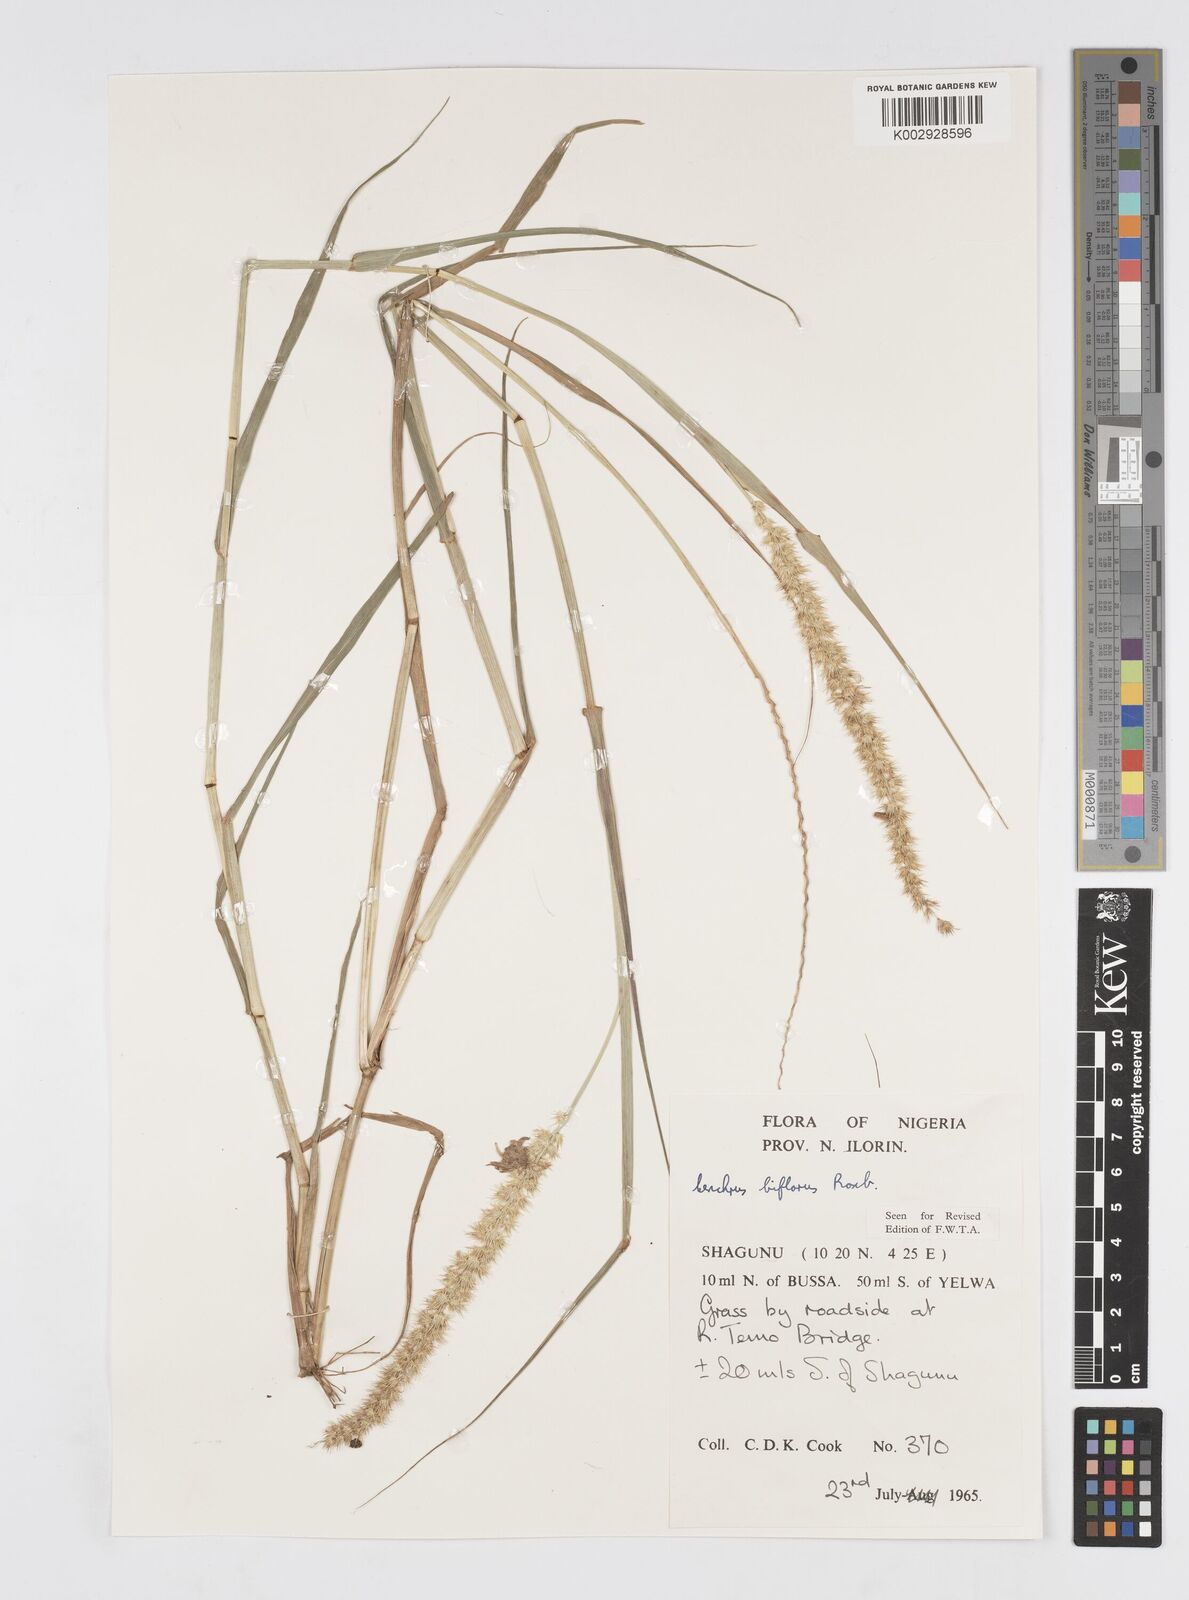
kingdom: Plantae
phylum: Tracheophyta
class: Liliopsida
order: Poales
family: Poaceae
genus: Cenchrus
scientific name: Cenchrus biflorus
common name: Indian sandbur
